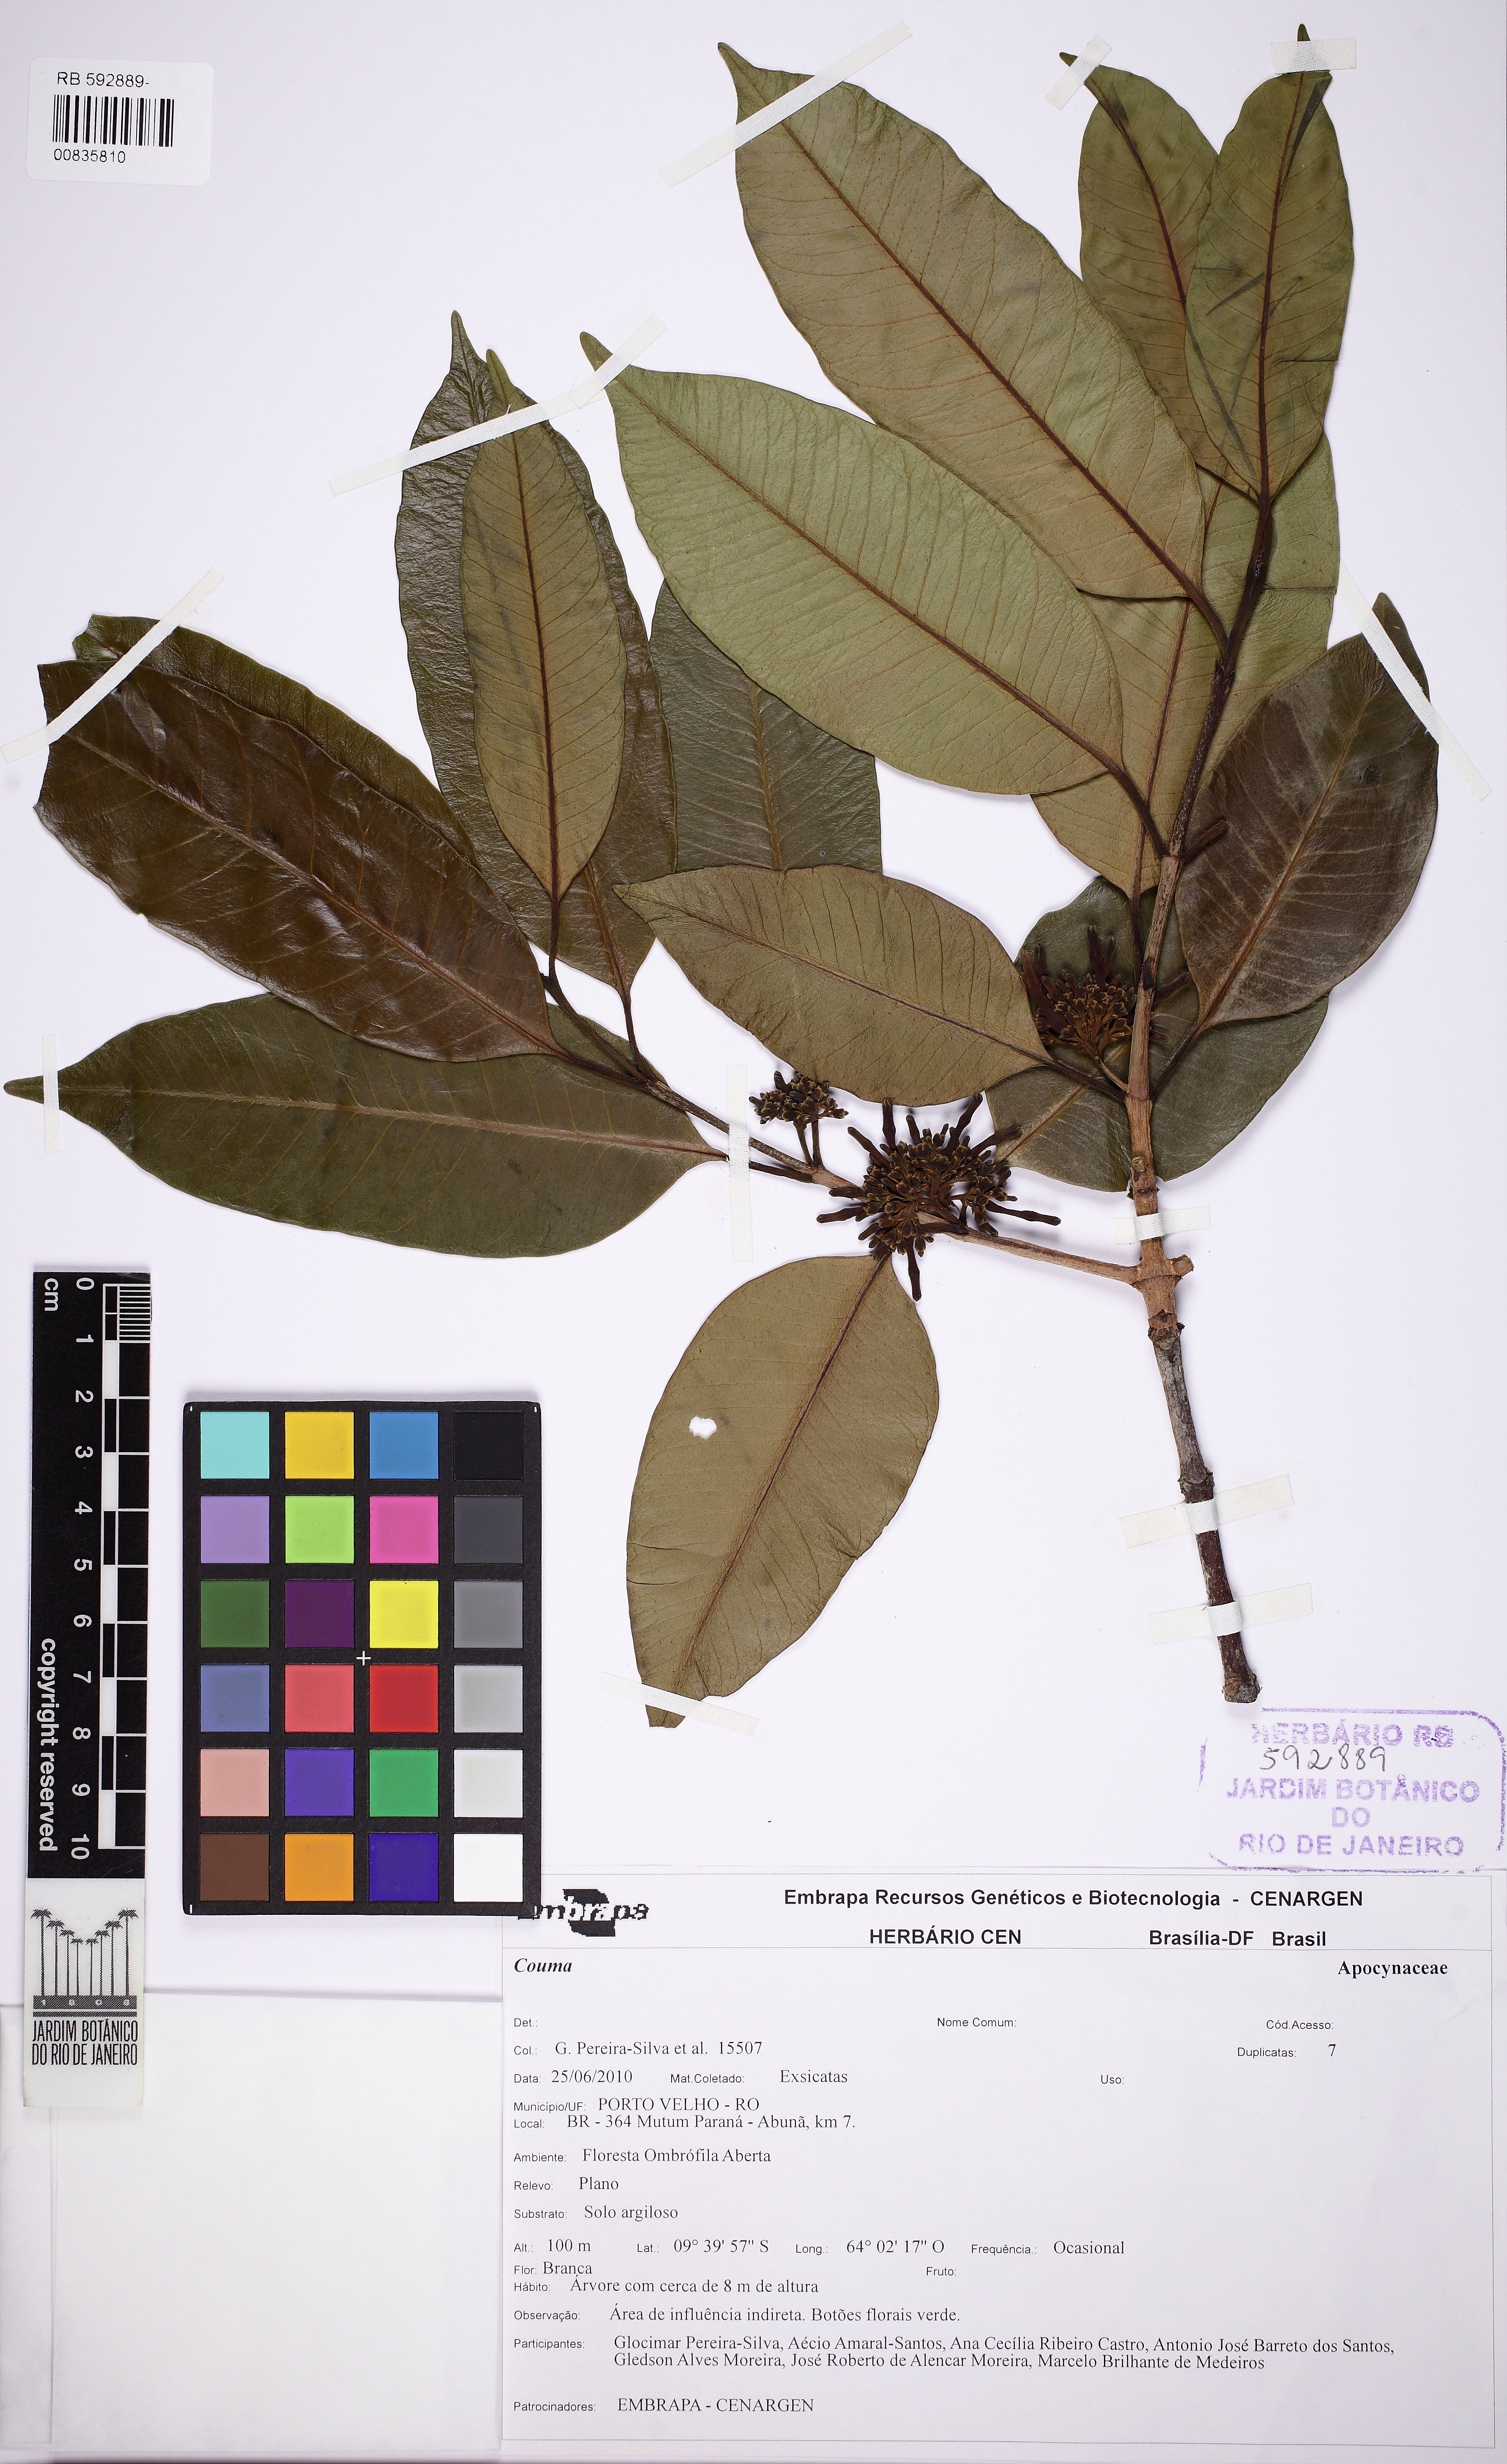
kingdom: Plantae
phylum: Tracheophyta
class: Magnoliopsida
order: Gentianales
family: Apocynaceae
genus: Couma
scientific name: Couma
